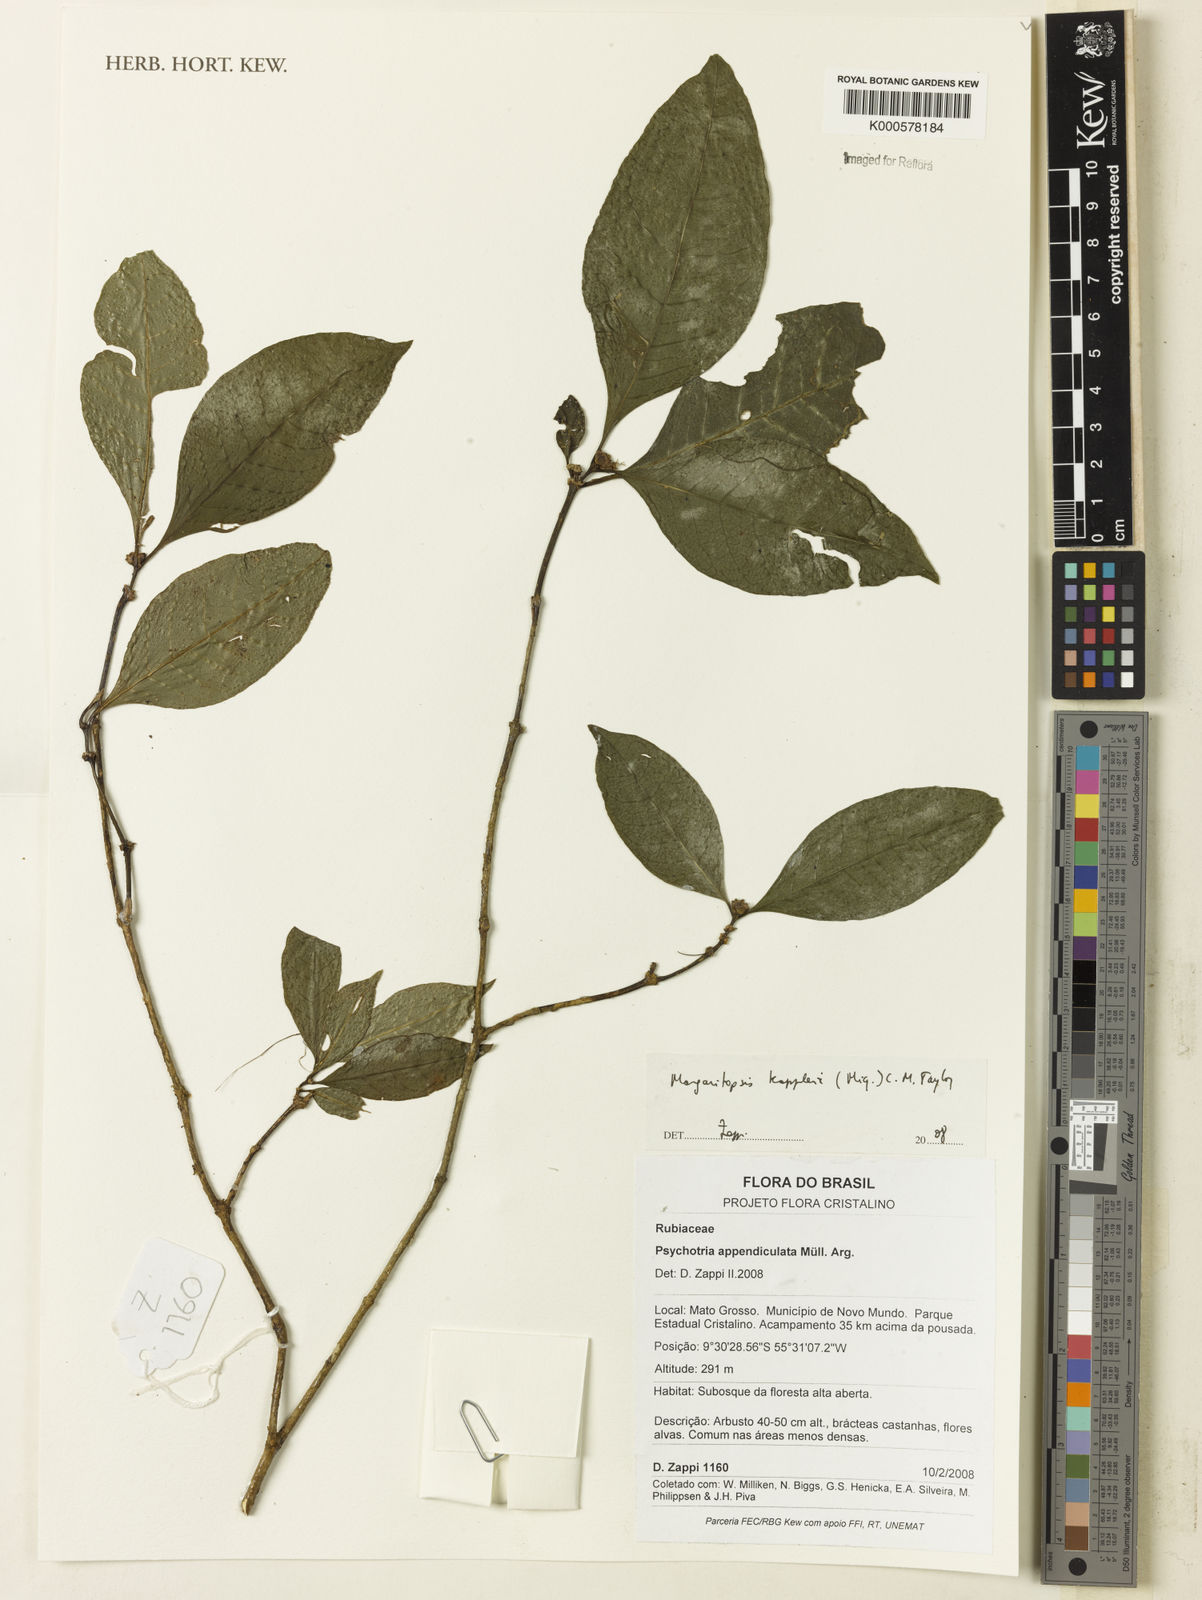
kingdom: Plantae
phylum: Tracheophyta
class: Magnoliopsida
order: Gentianales
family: Rubiaceae
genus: Eumachia
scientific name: Eumachia kappleri
